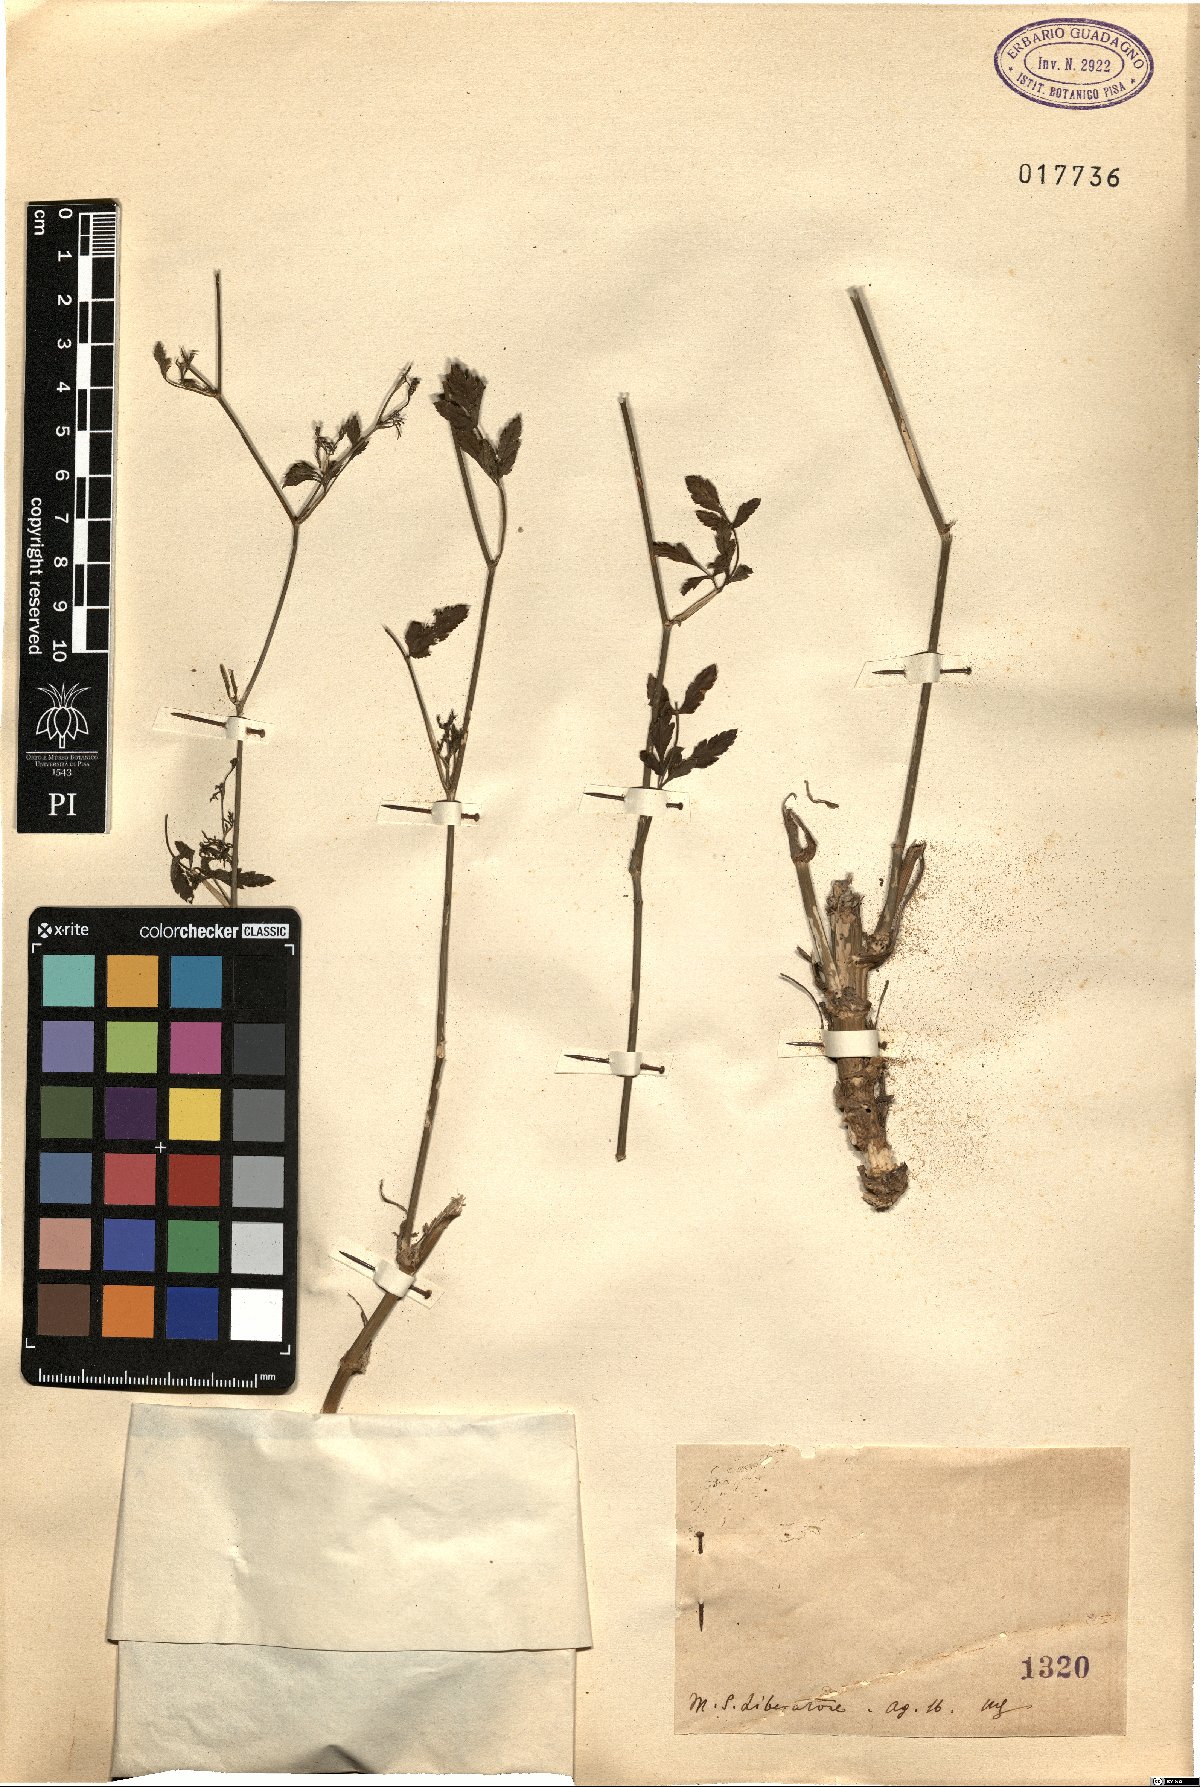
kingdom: Plantae
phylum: Tracheophyta
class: Magnoliopsida
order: Apiales
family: Apiaceae
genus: Sison
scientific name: Sison
